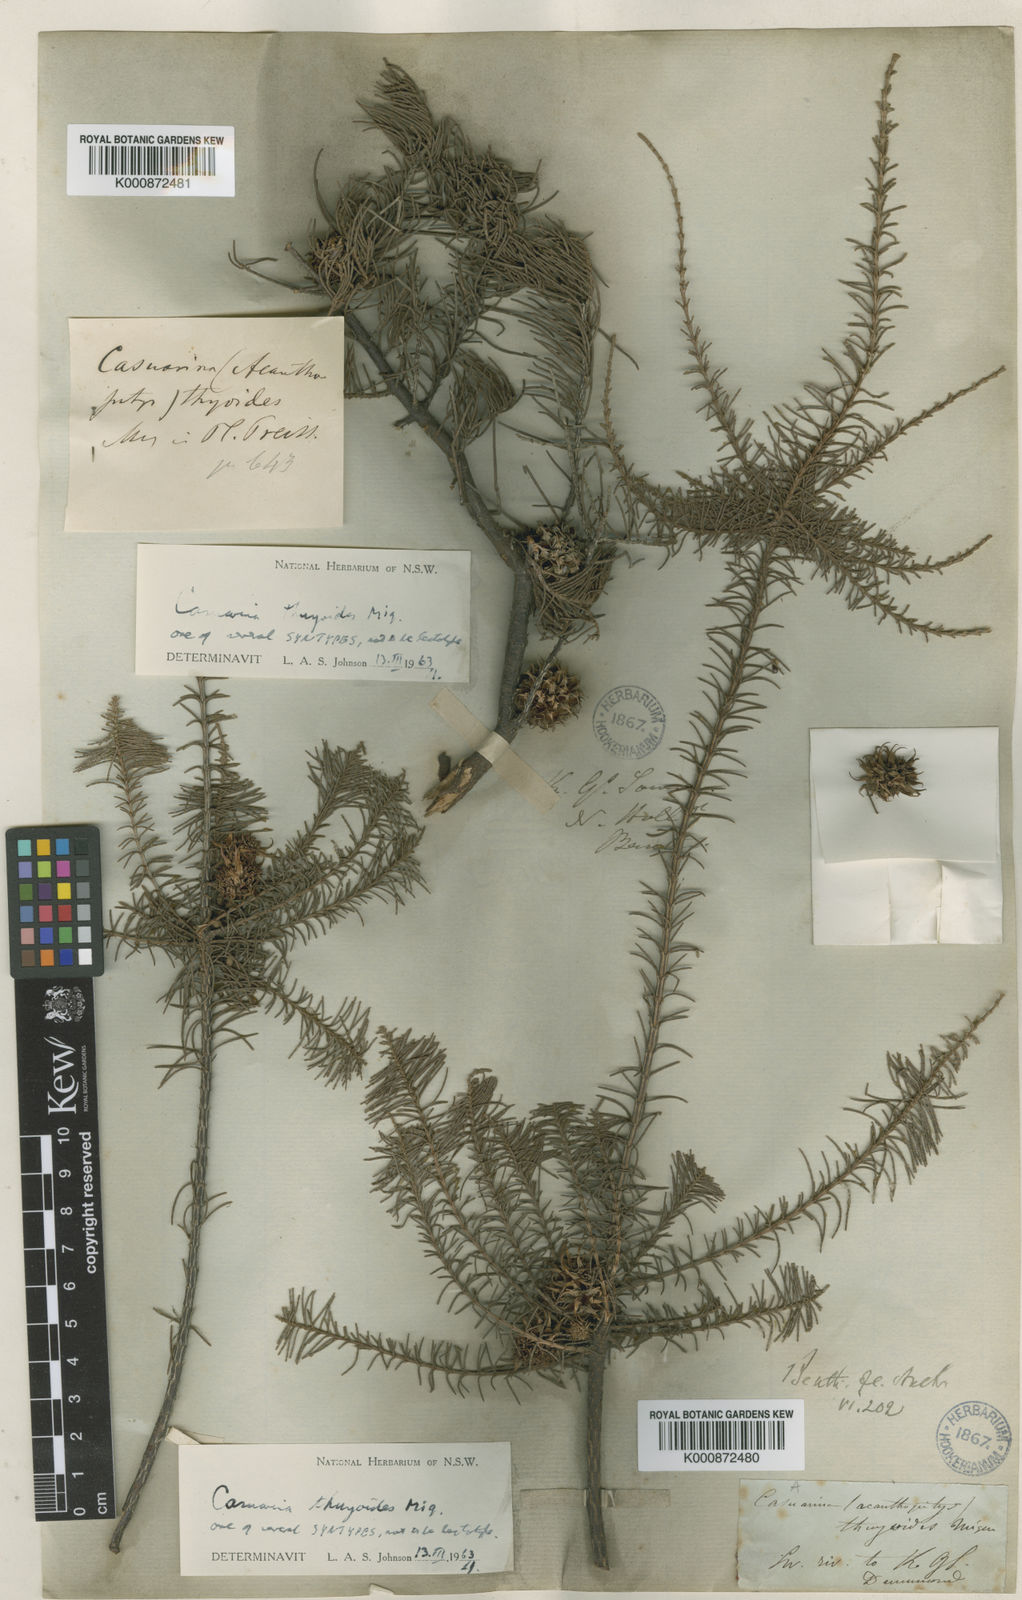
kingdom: Plantae
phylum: Tracheophyta
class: Magnoliopsida
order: Fagales
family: Casuarinaceae
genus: Allocasuarina
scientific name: Allocasuarina thuyoides
